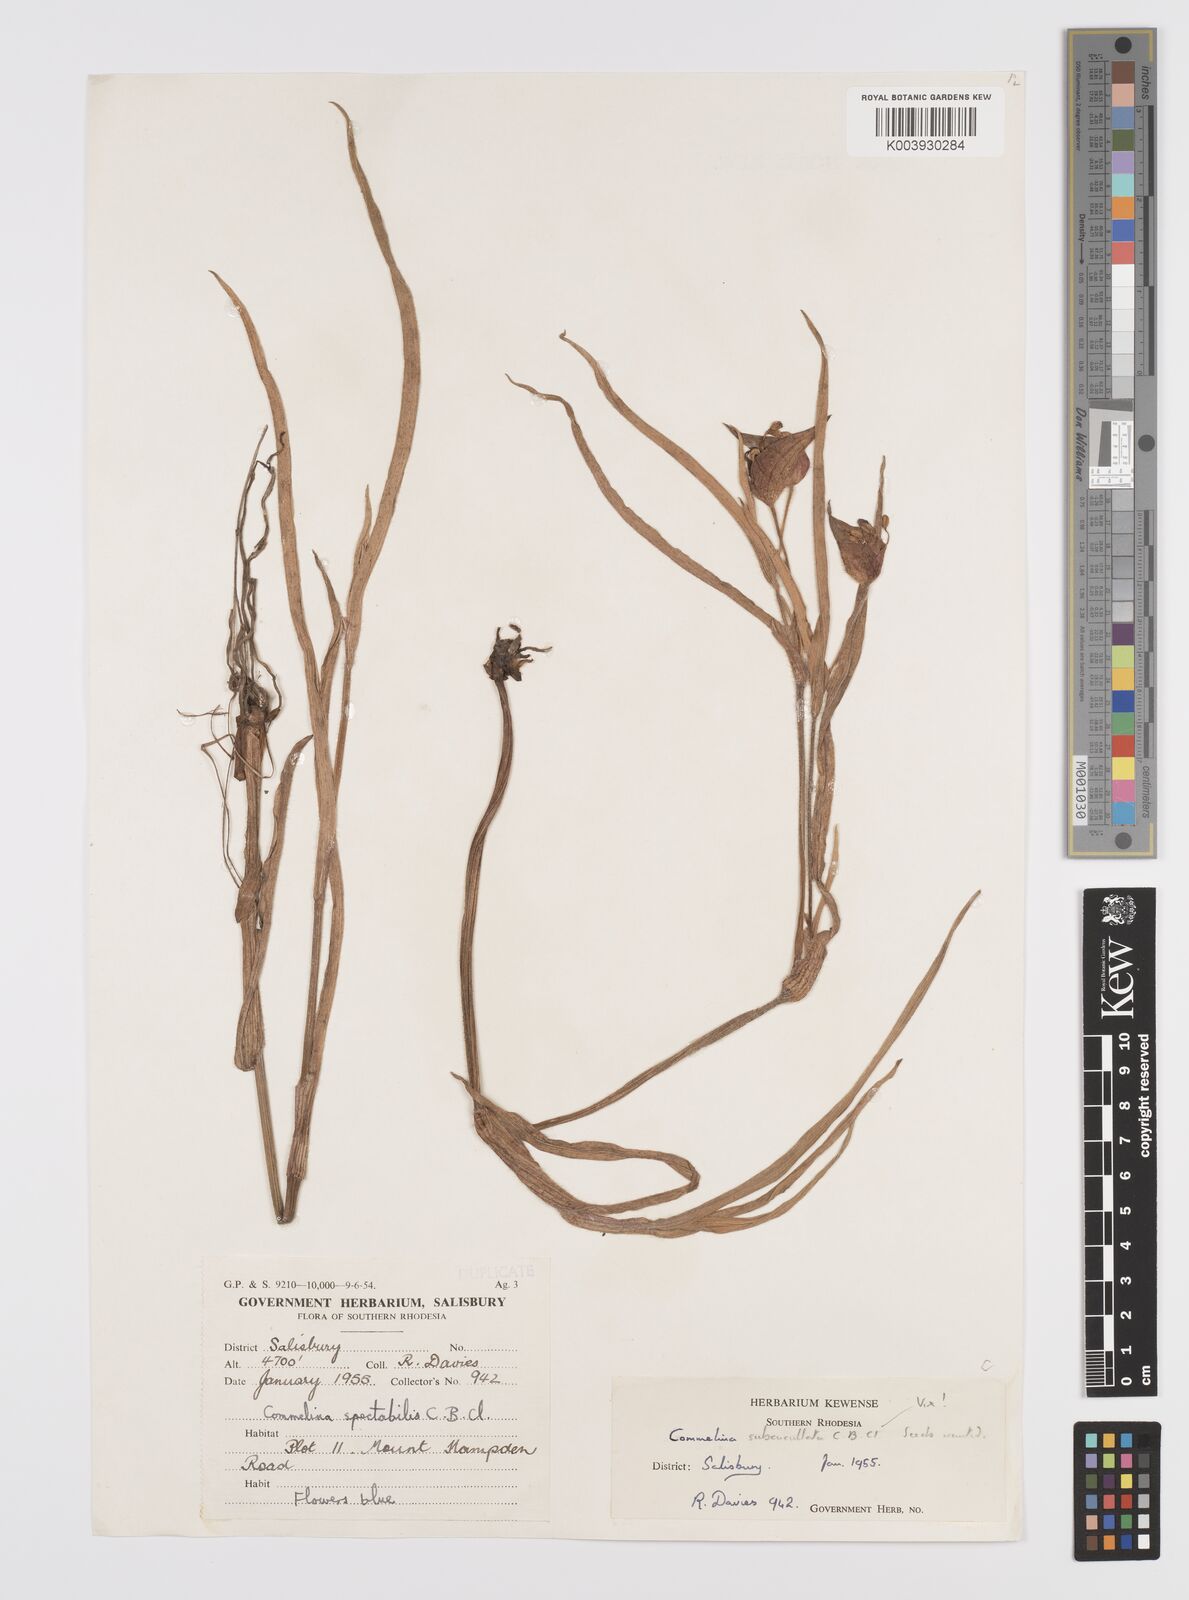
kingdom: Plantae
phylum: Tracheophyta
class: Liliopsida
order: Commelinales
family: Commelinaceae
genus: Commelina
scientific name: Commelina schweinfurthii
